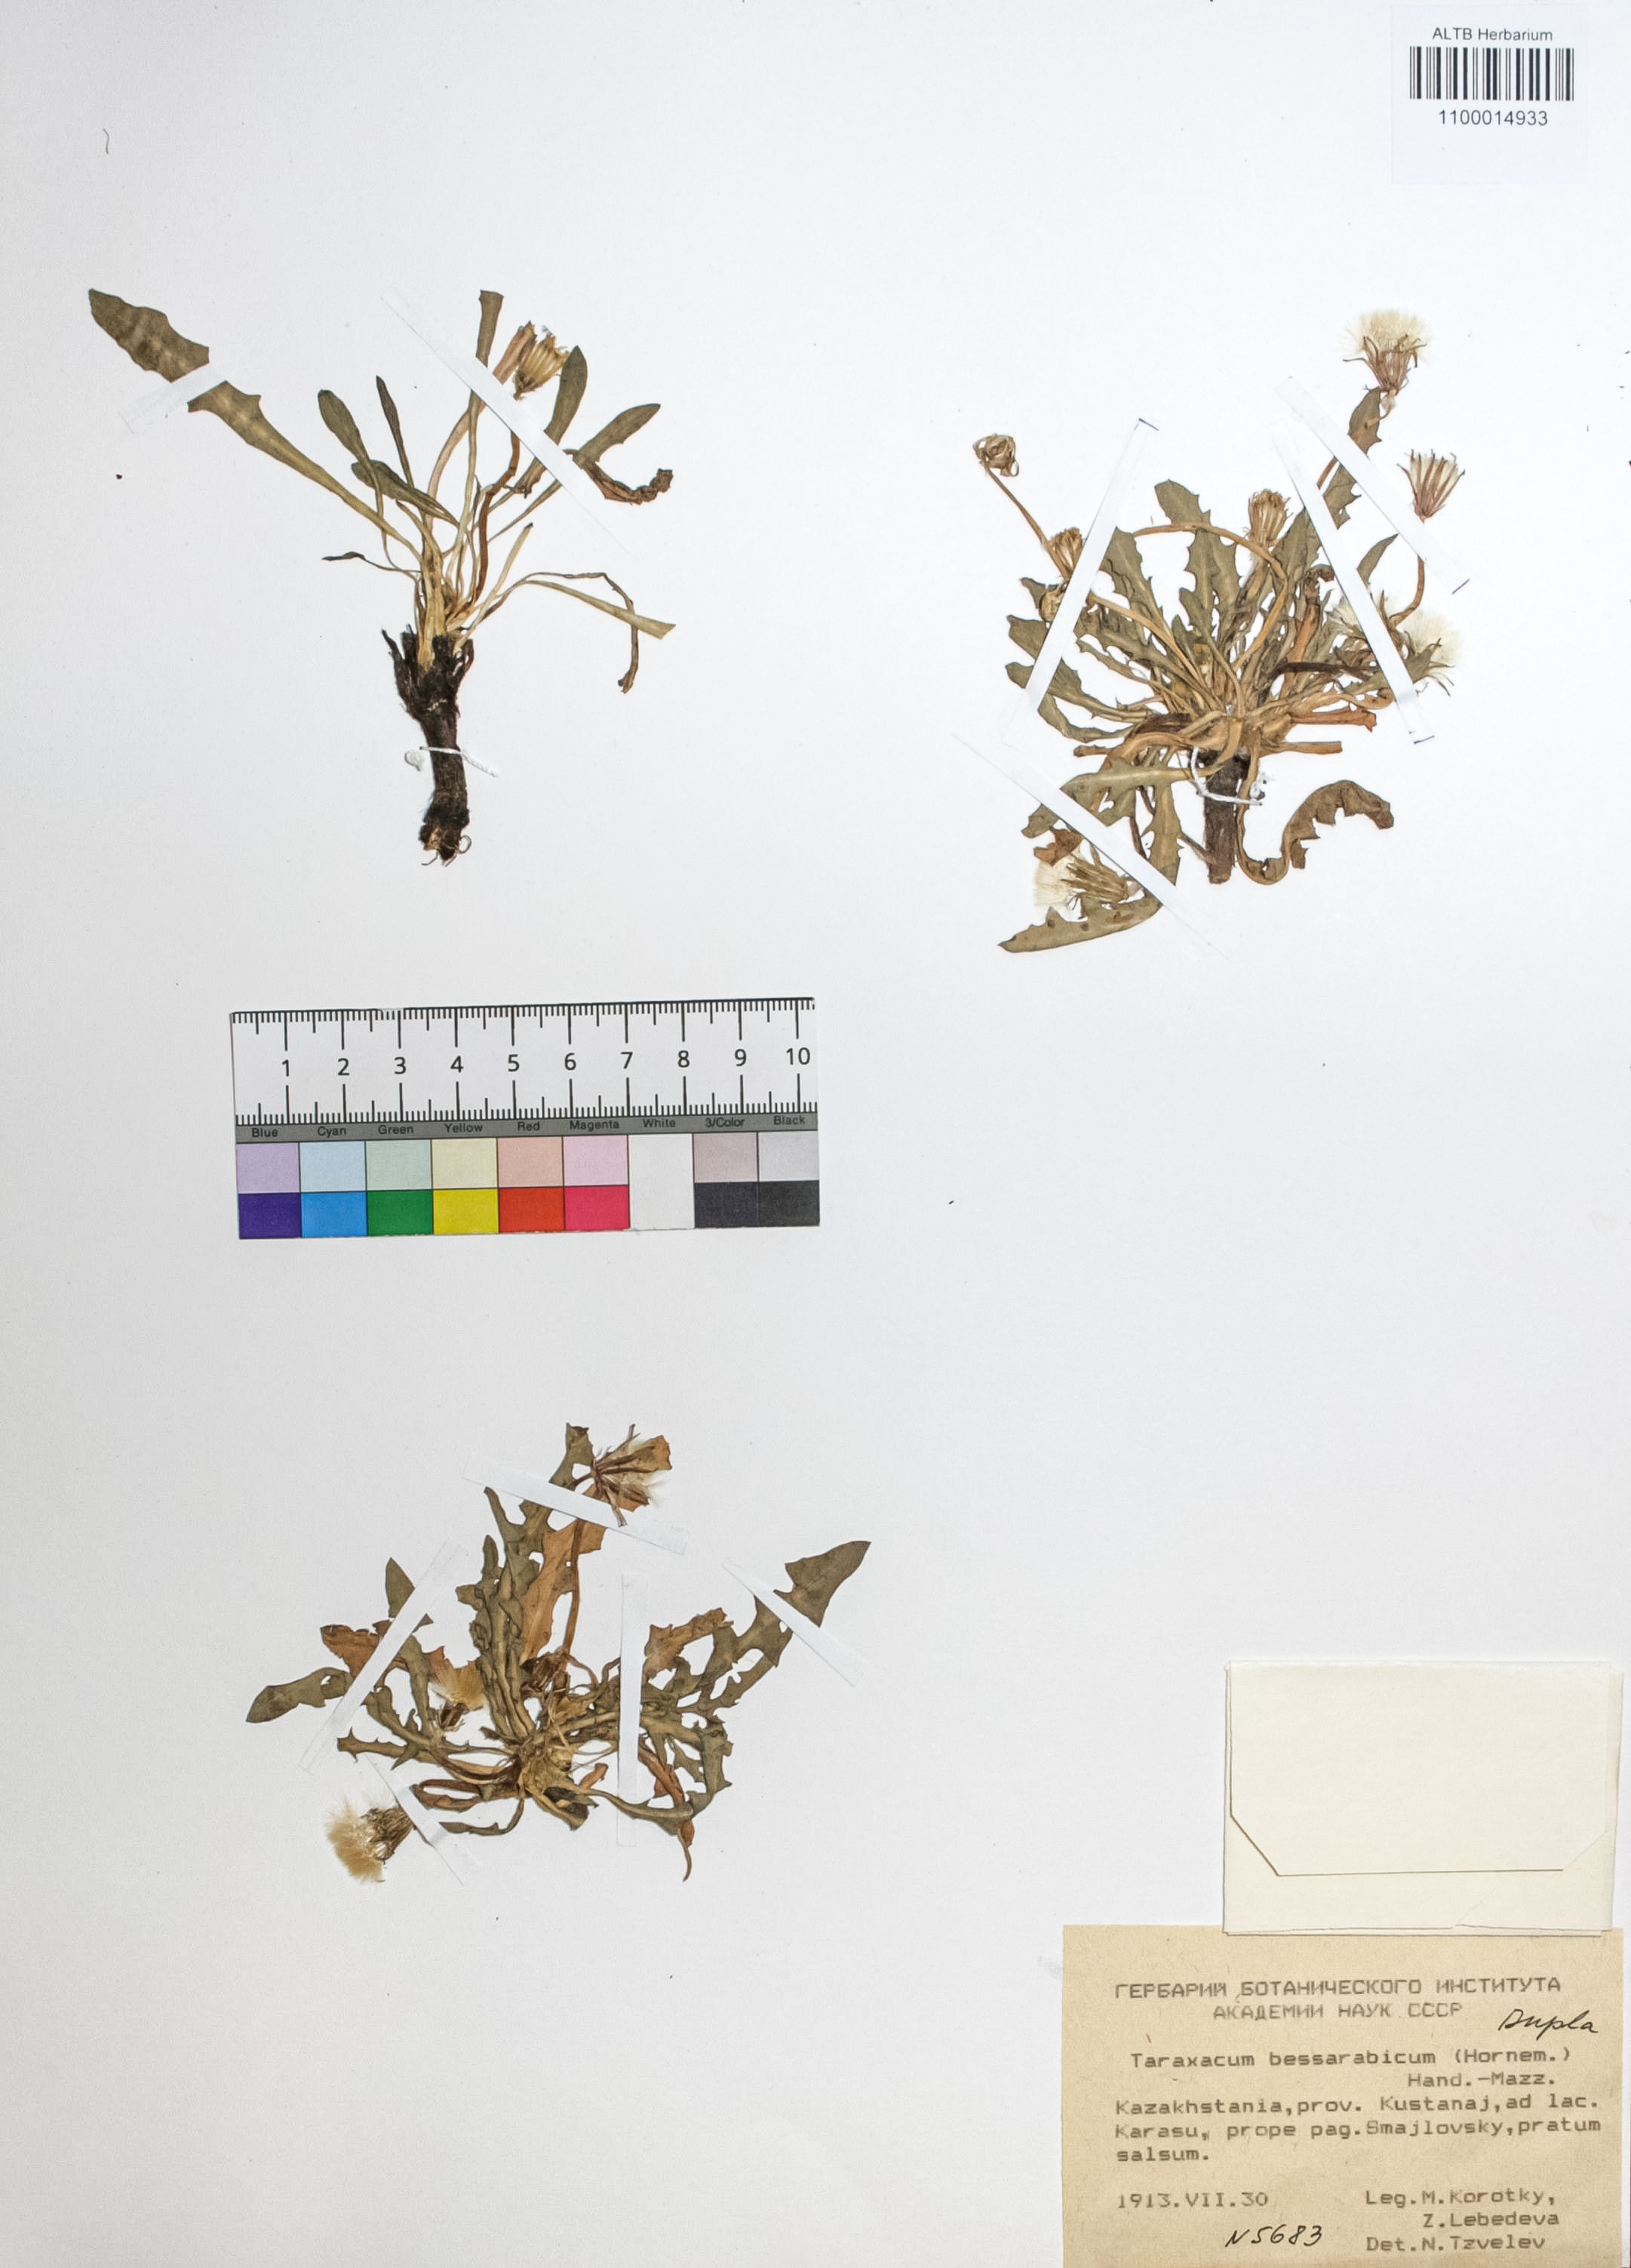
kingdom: Plantae
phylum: Tracheophyta
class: Magnoliopsida
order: Asterales
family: Asteraceae
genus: Taraxacum
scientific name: Taraxacum bessarabicum
